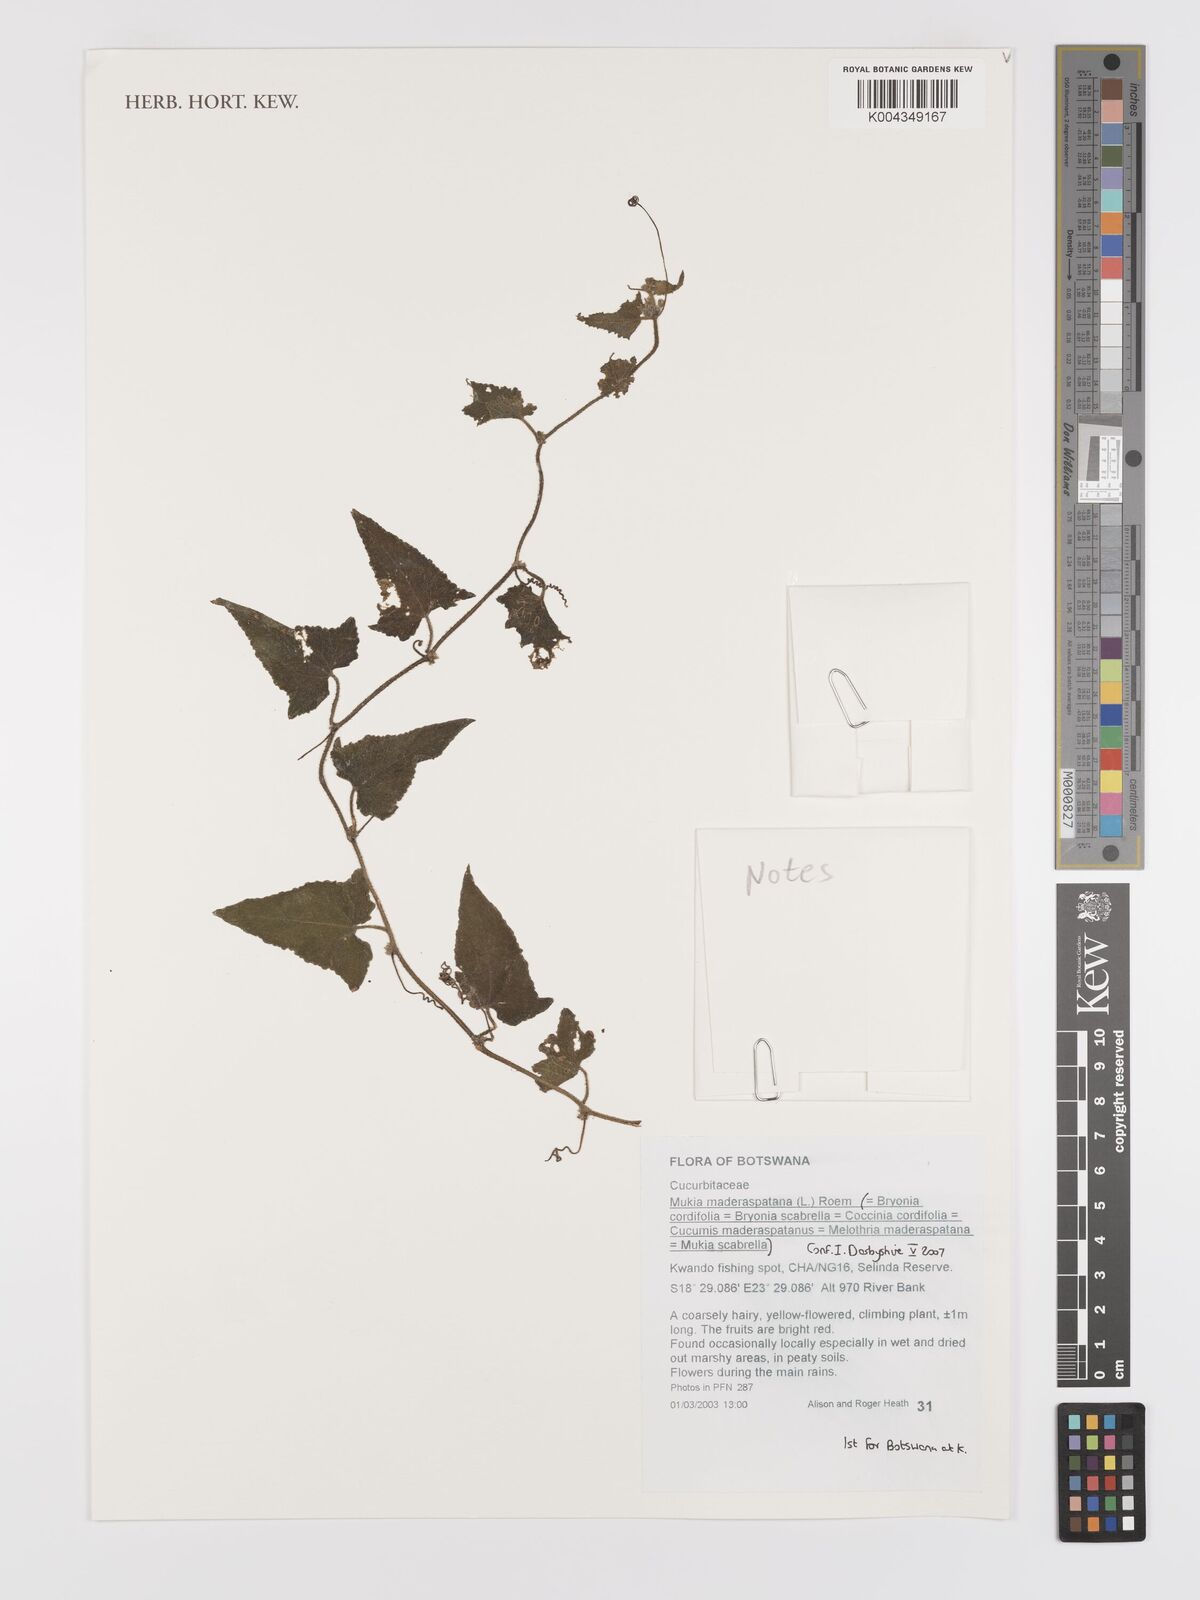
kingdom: Plantae
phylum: Tracheophyta
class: Magnoliopsida
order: Cucurbitales
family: Cucurbitaceae
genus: Cucumis
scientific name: Cucumis maderaspatanus
